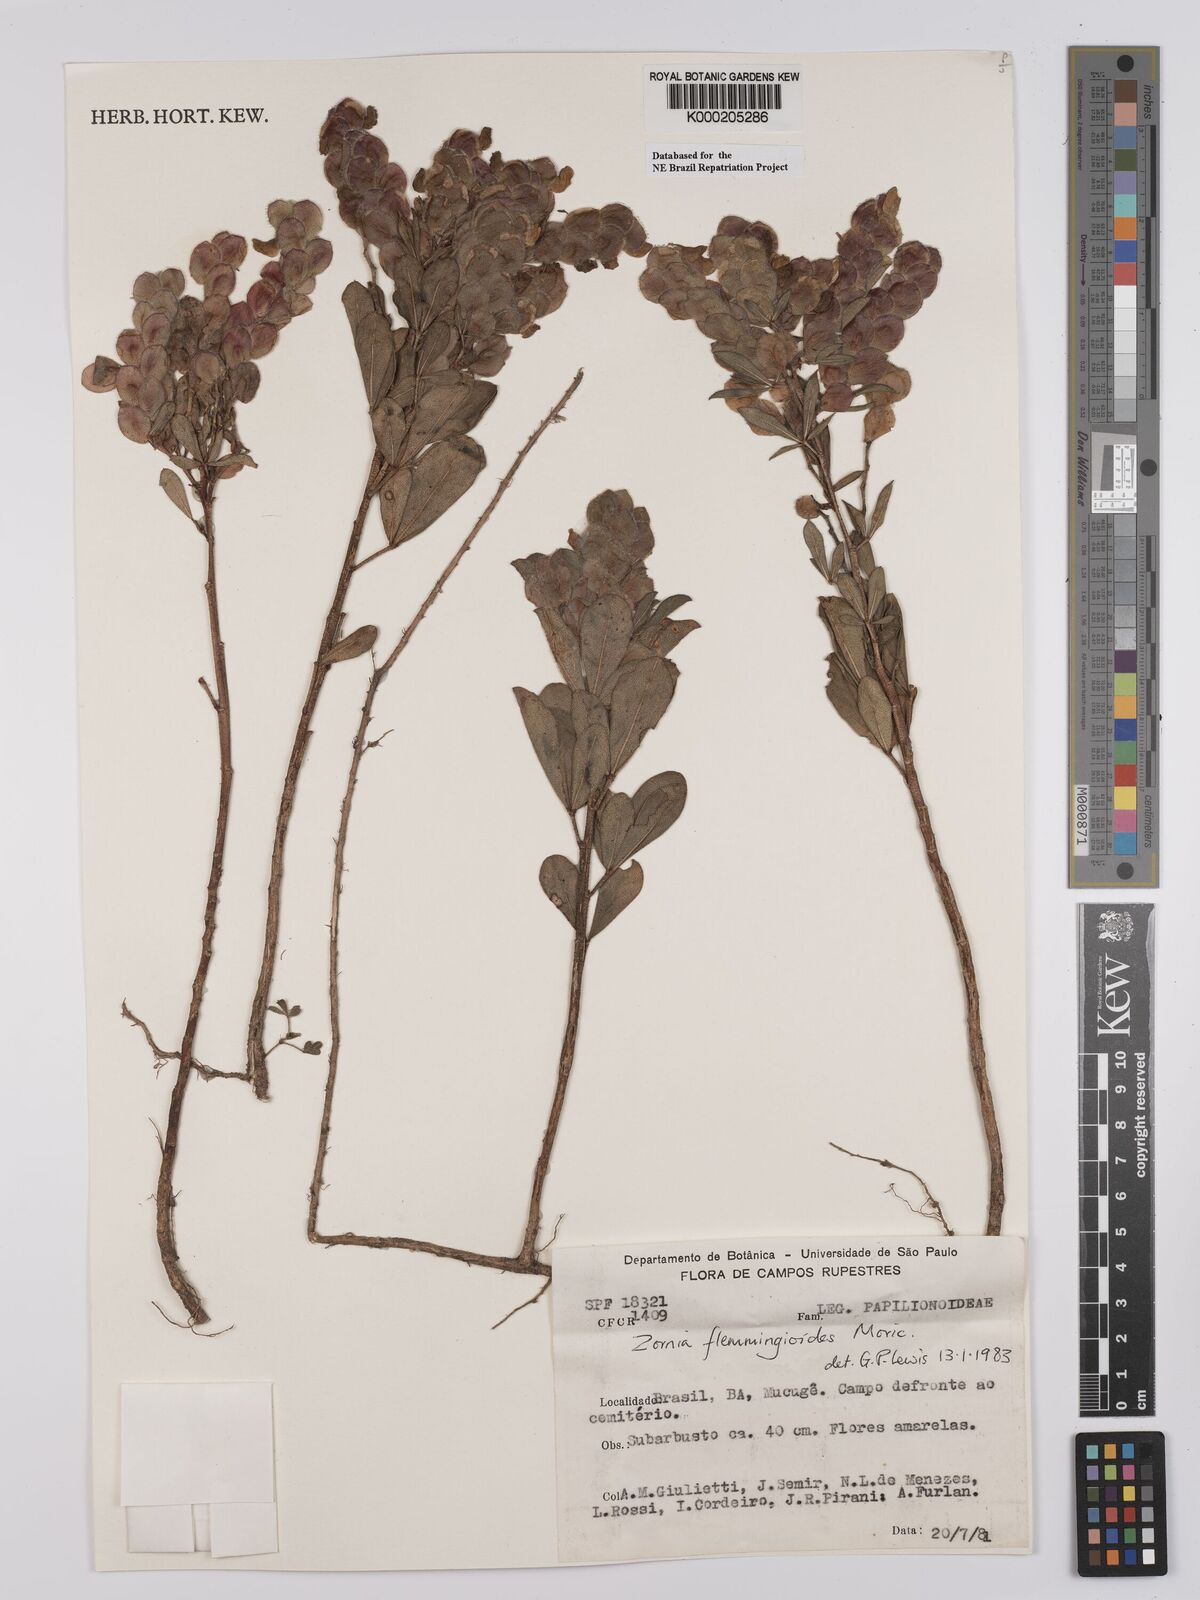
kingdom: Plantae
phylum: Tracheophyta
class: Magnoliopsida
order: Fabales
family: Fabaceae
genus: Zornia
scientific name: Zornia flemmingioides
